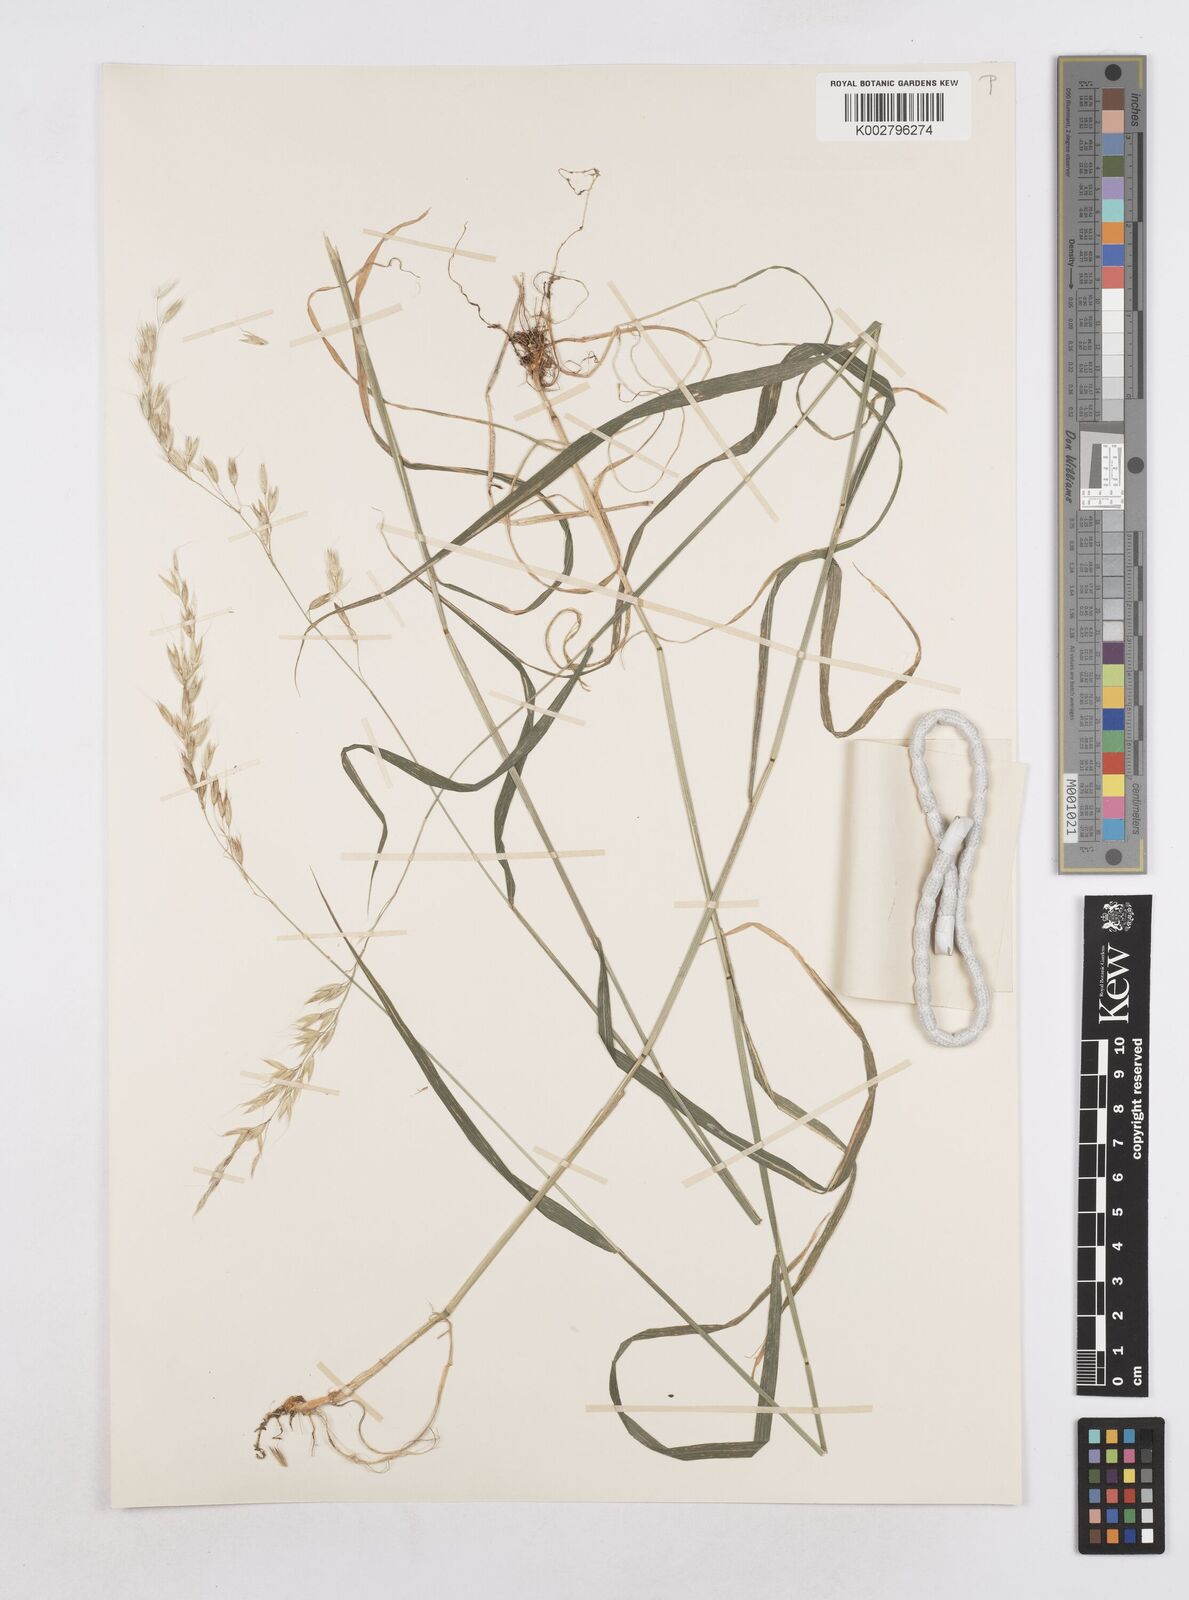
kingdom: Plantae
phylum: Tracheophyta
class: Liliopsida
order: Poales
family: Poaceae
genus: Arrhenatherum
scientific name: Arrhenatherum elatius
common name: Tall oatgrass
